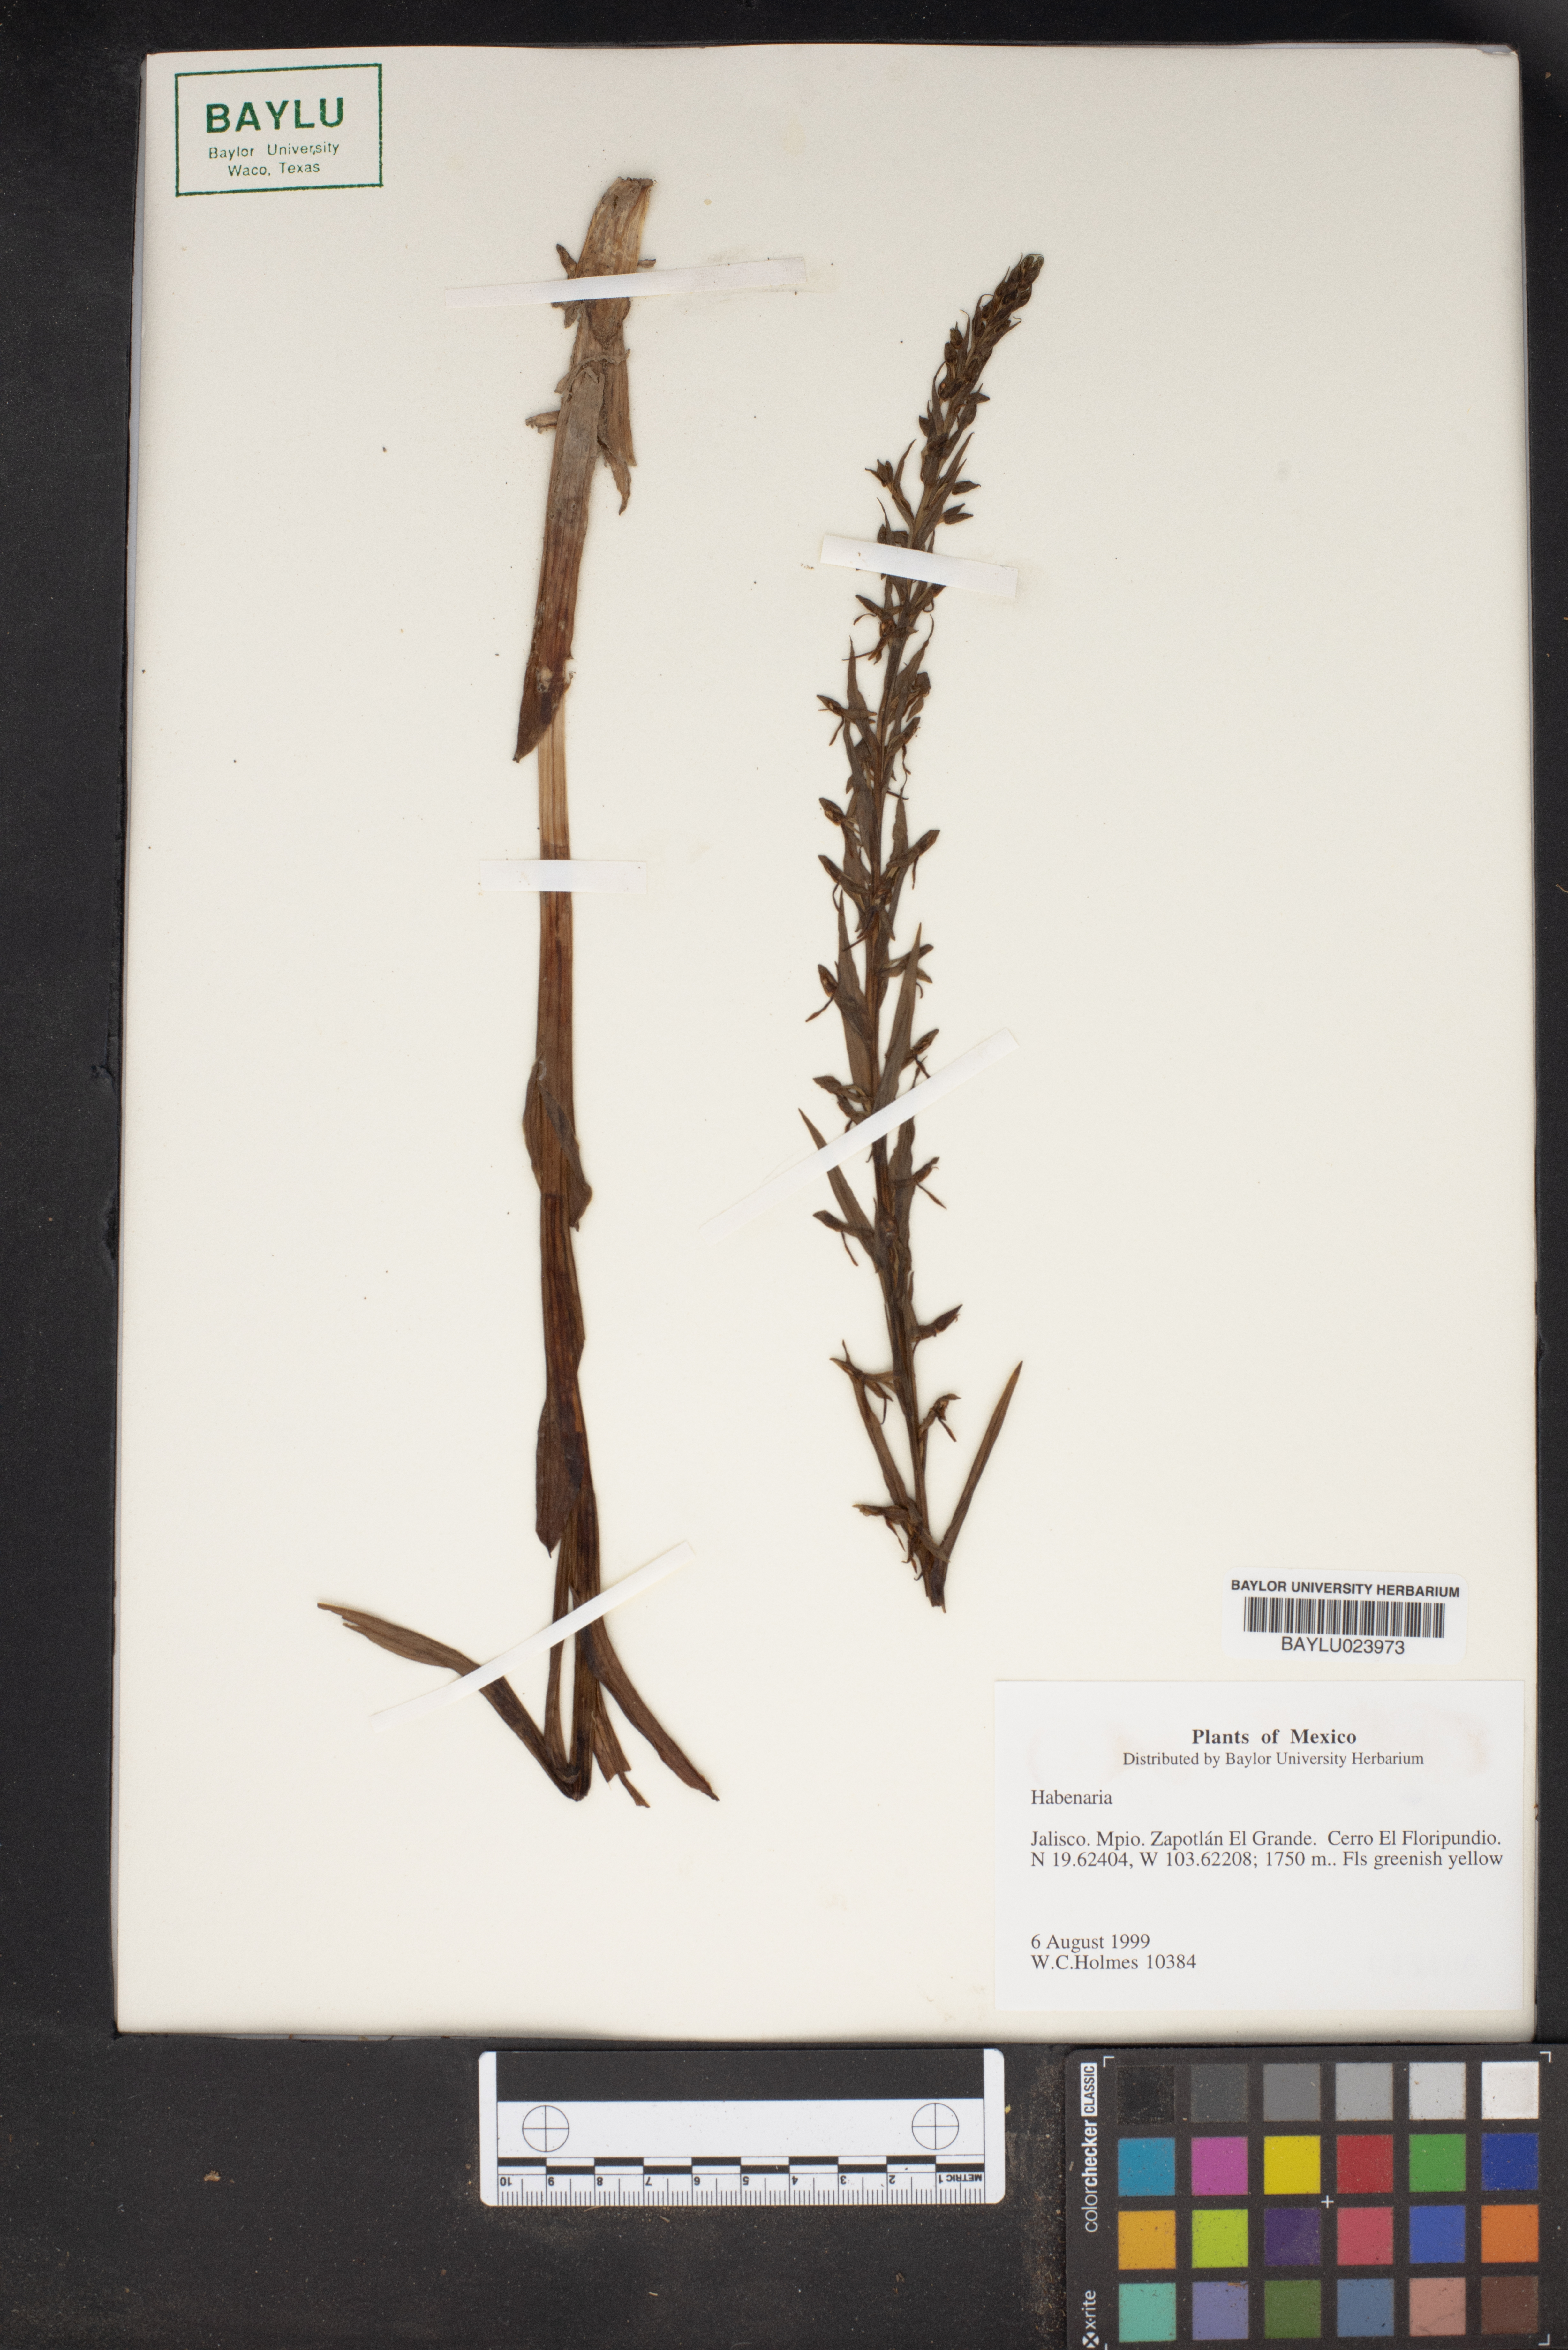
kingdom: Plantae
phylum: Tracheophyta
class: Liliopsida
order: Asparagales
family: Orchidaceae
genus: Habenaria
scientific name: Habenaria
